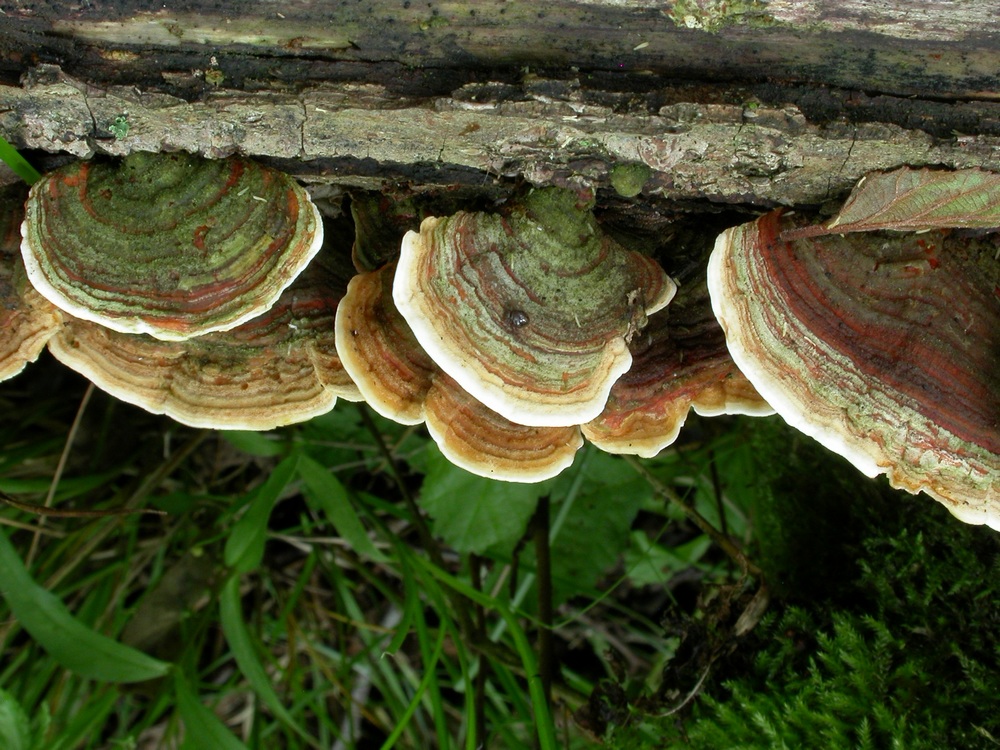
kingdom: Fungi
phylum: Basidiomycota
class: Agaricomycetes
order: Russulales
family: Stereaceae
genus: Stereum
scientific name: Stereum subtomentosum
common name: smuk lædersvamp
